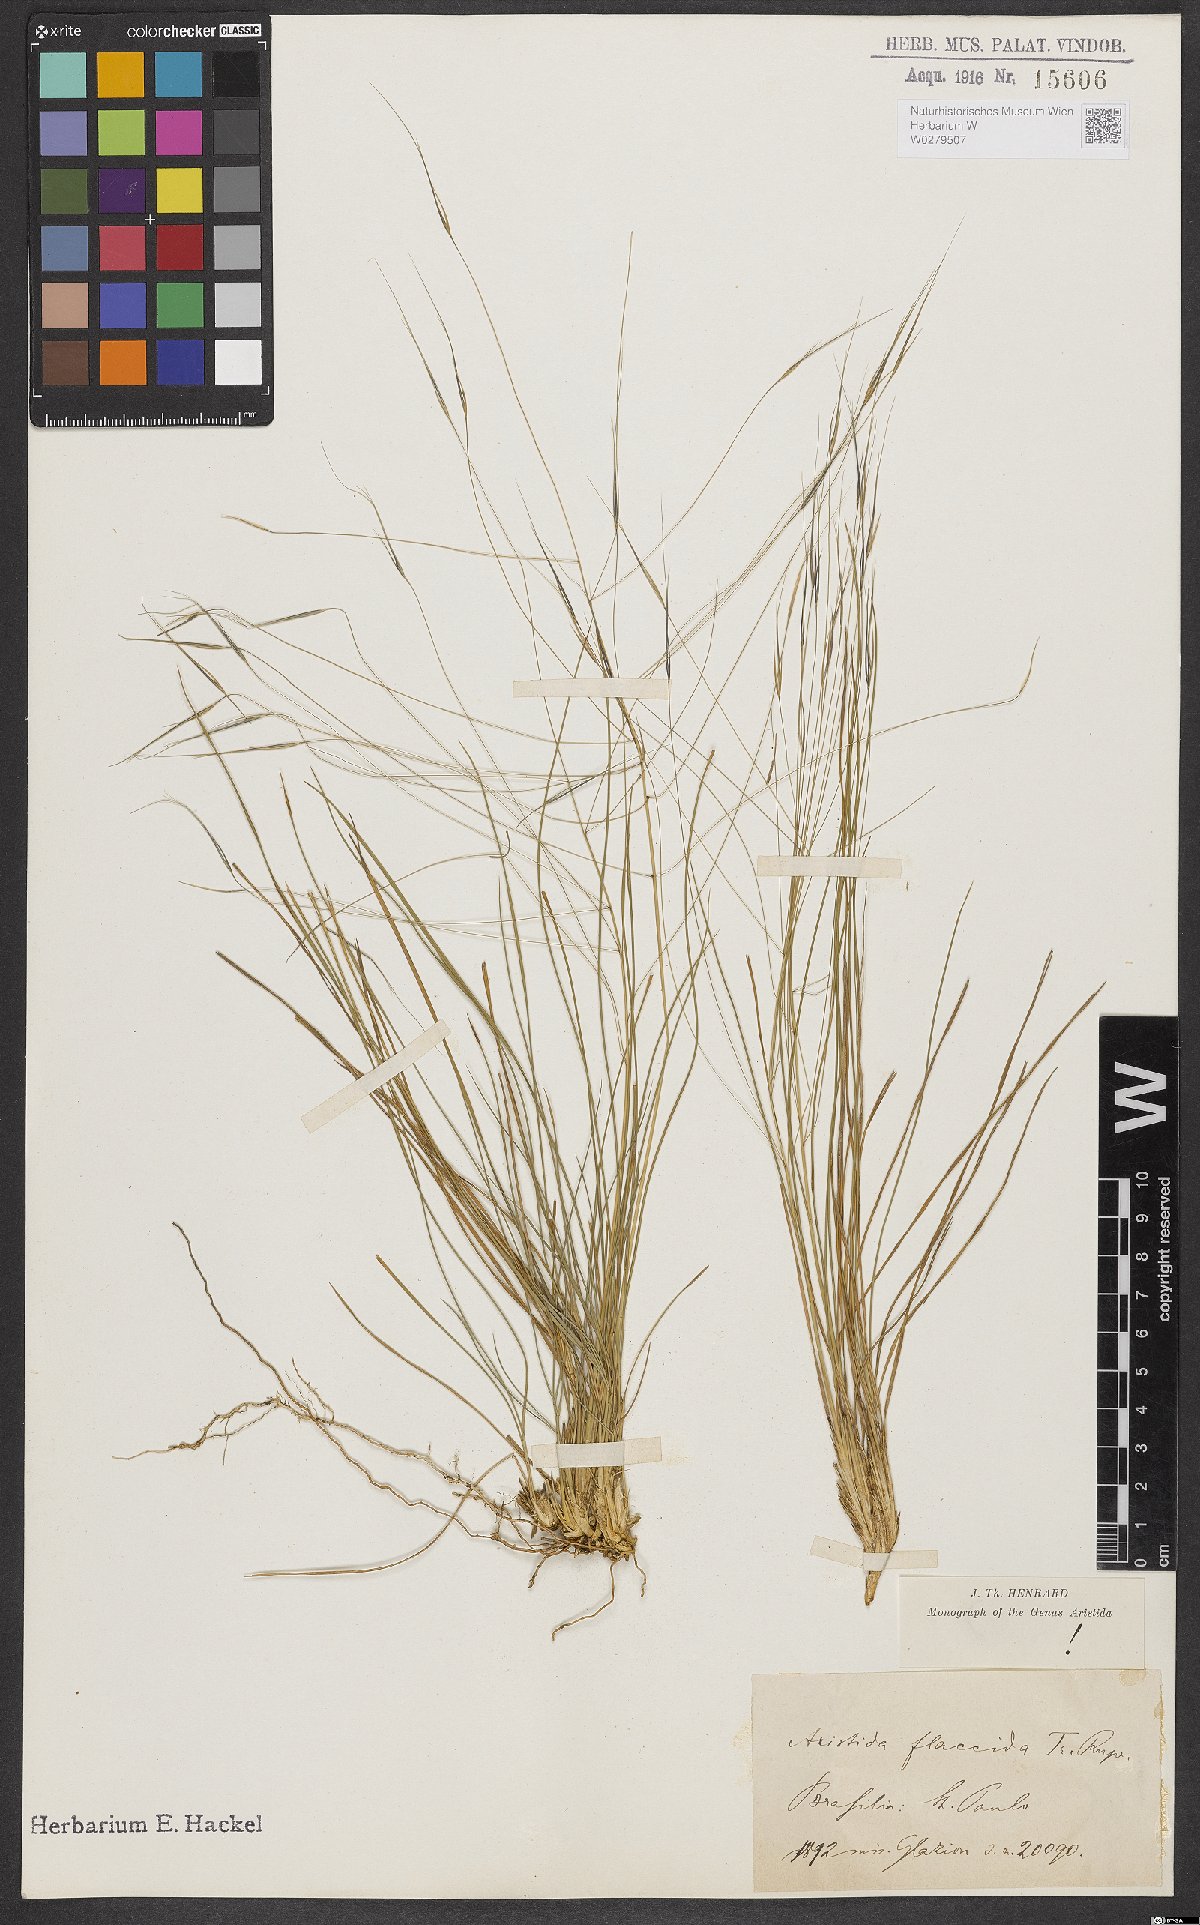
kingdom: Plantae
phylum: Tracheophyta
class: Liliopsida
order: Poales
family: Poaceae
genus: Aristida
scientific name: Aristida flaccida
